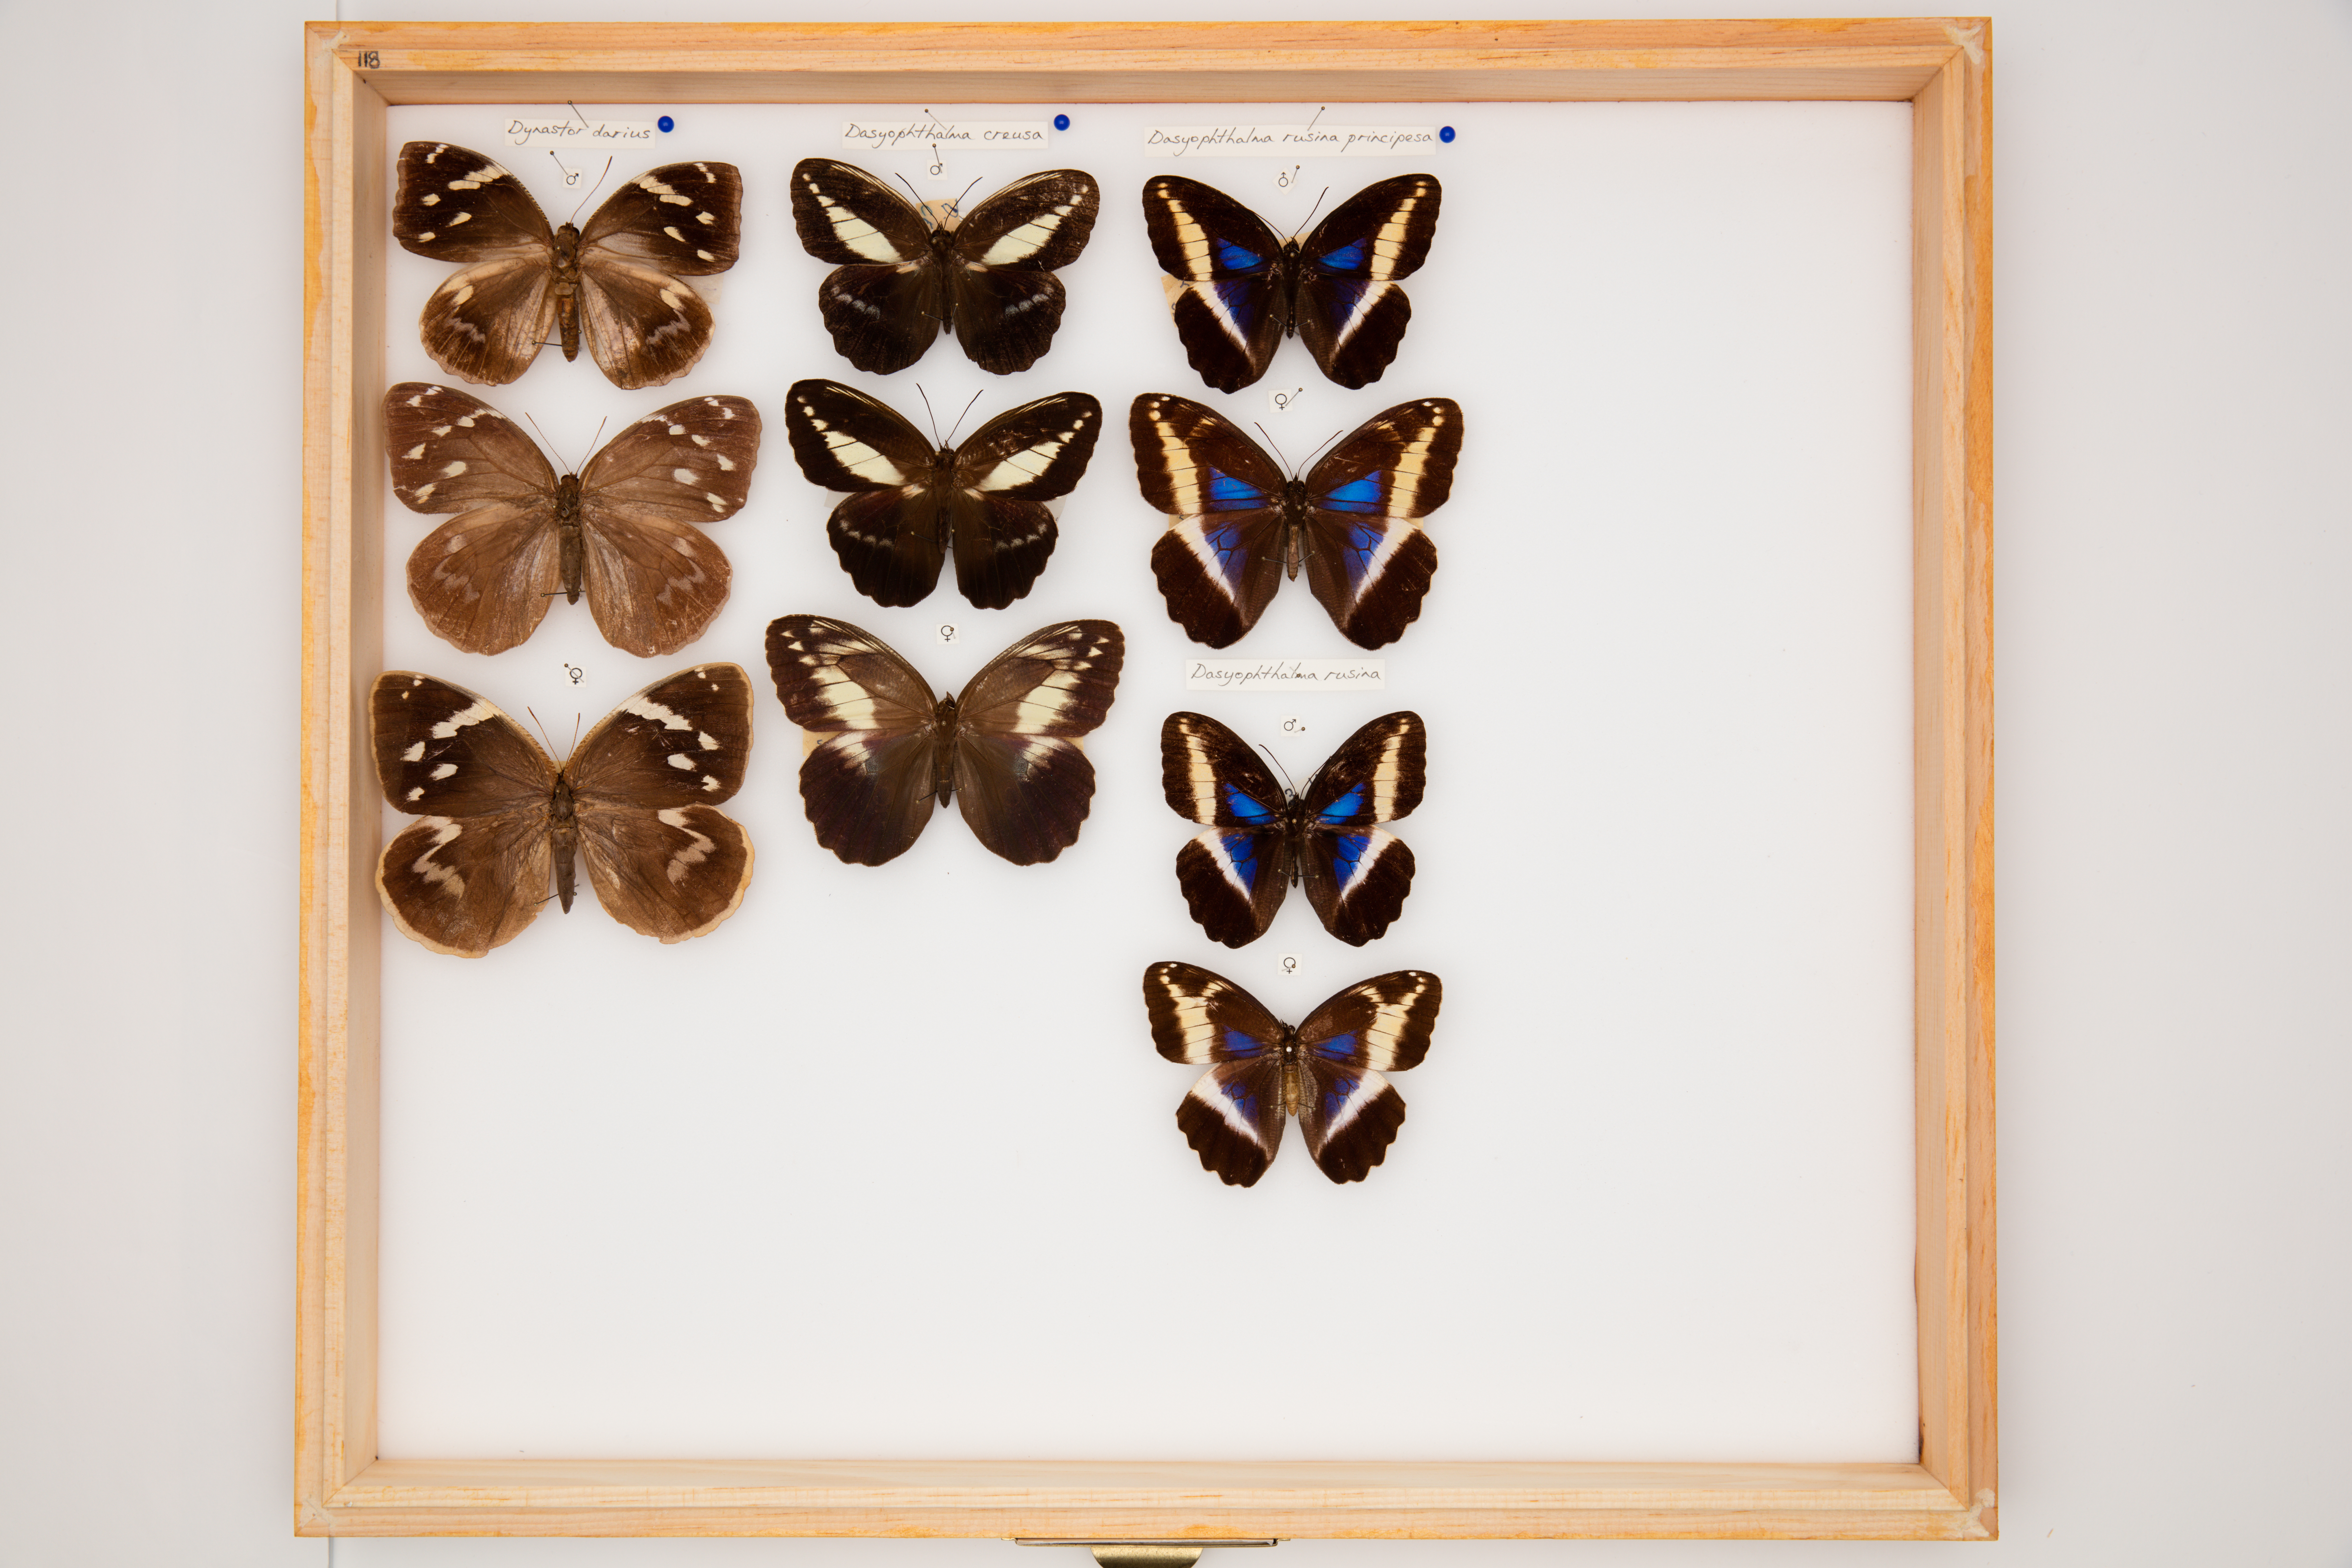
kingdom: Animalia
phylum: Arthropoda
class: Insecta
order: Lepidoptera
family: Nymphalidae
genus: Dasyophthalma
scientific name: Dasyophthalma creusa
